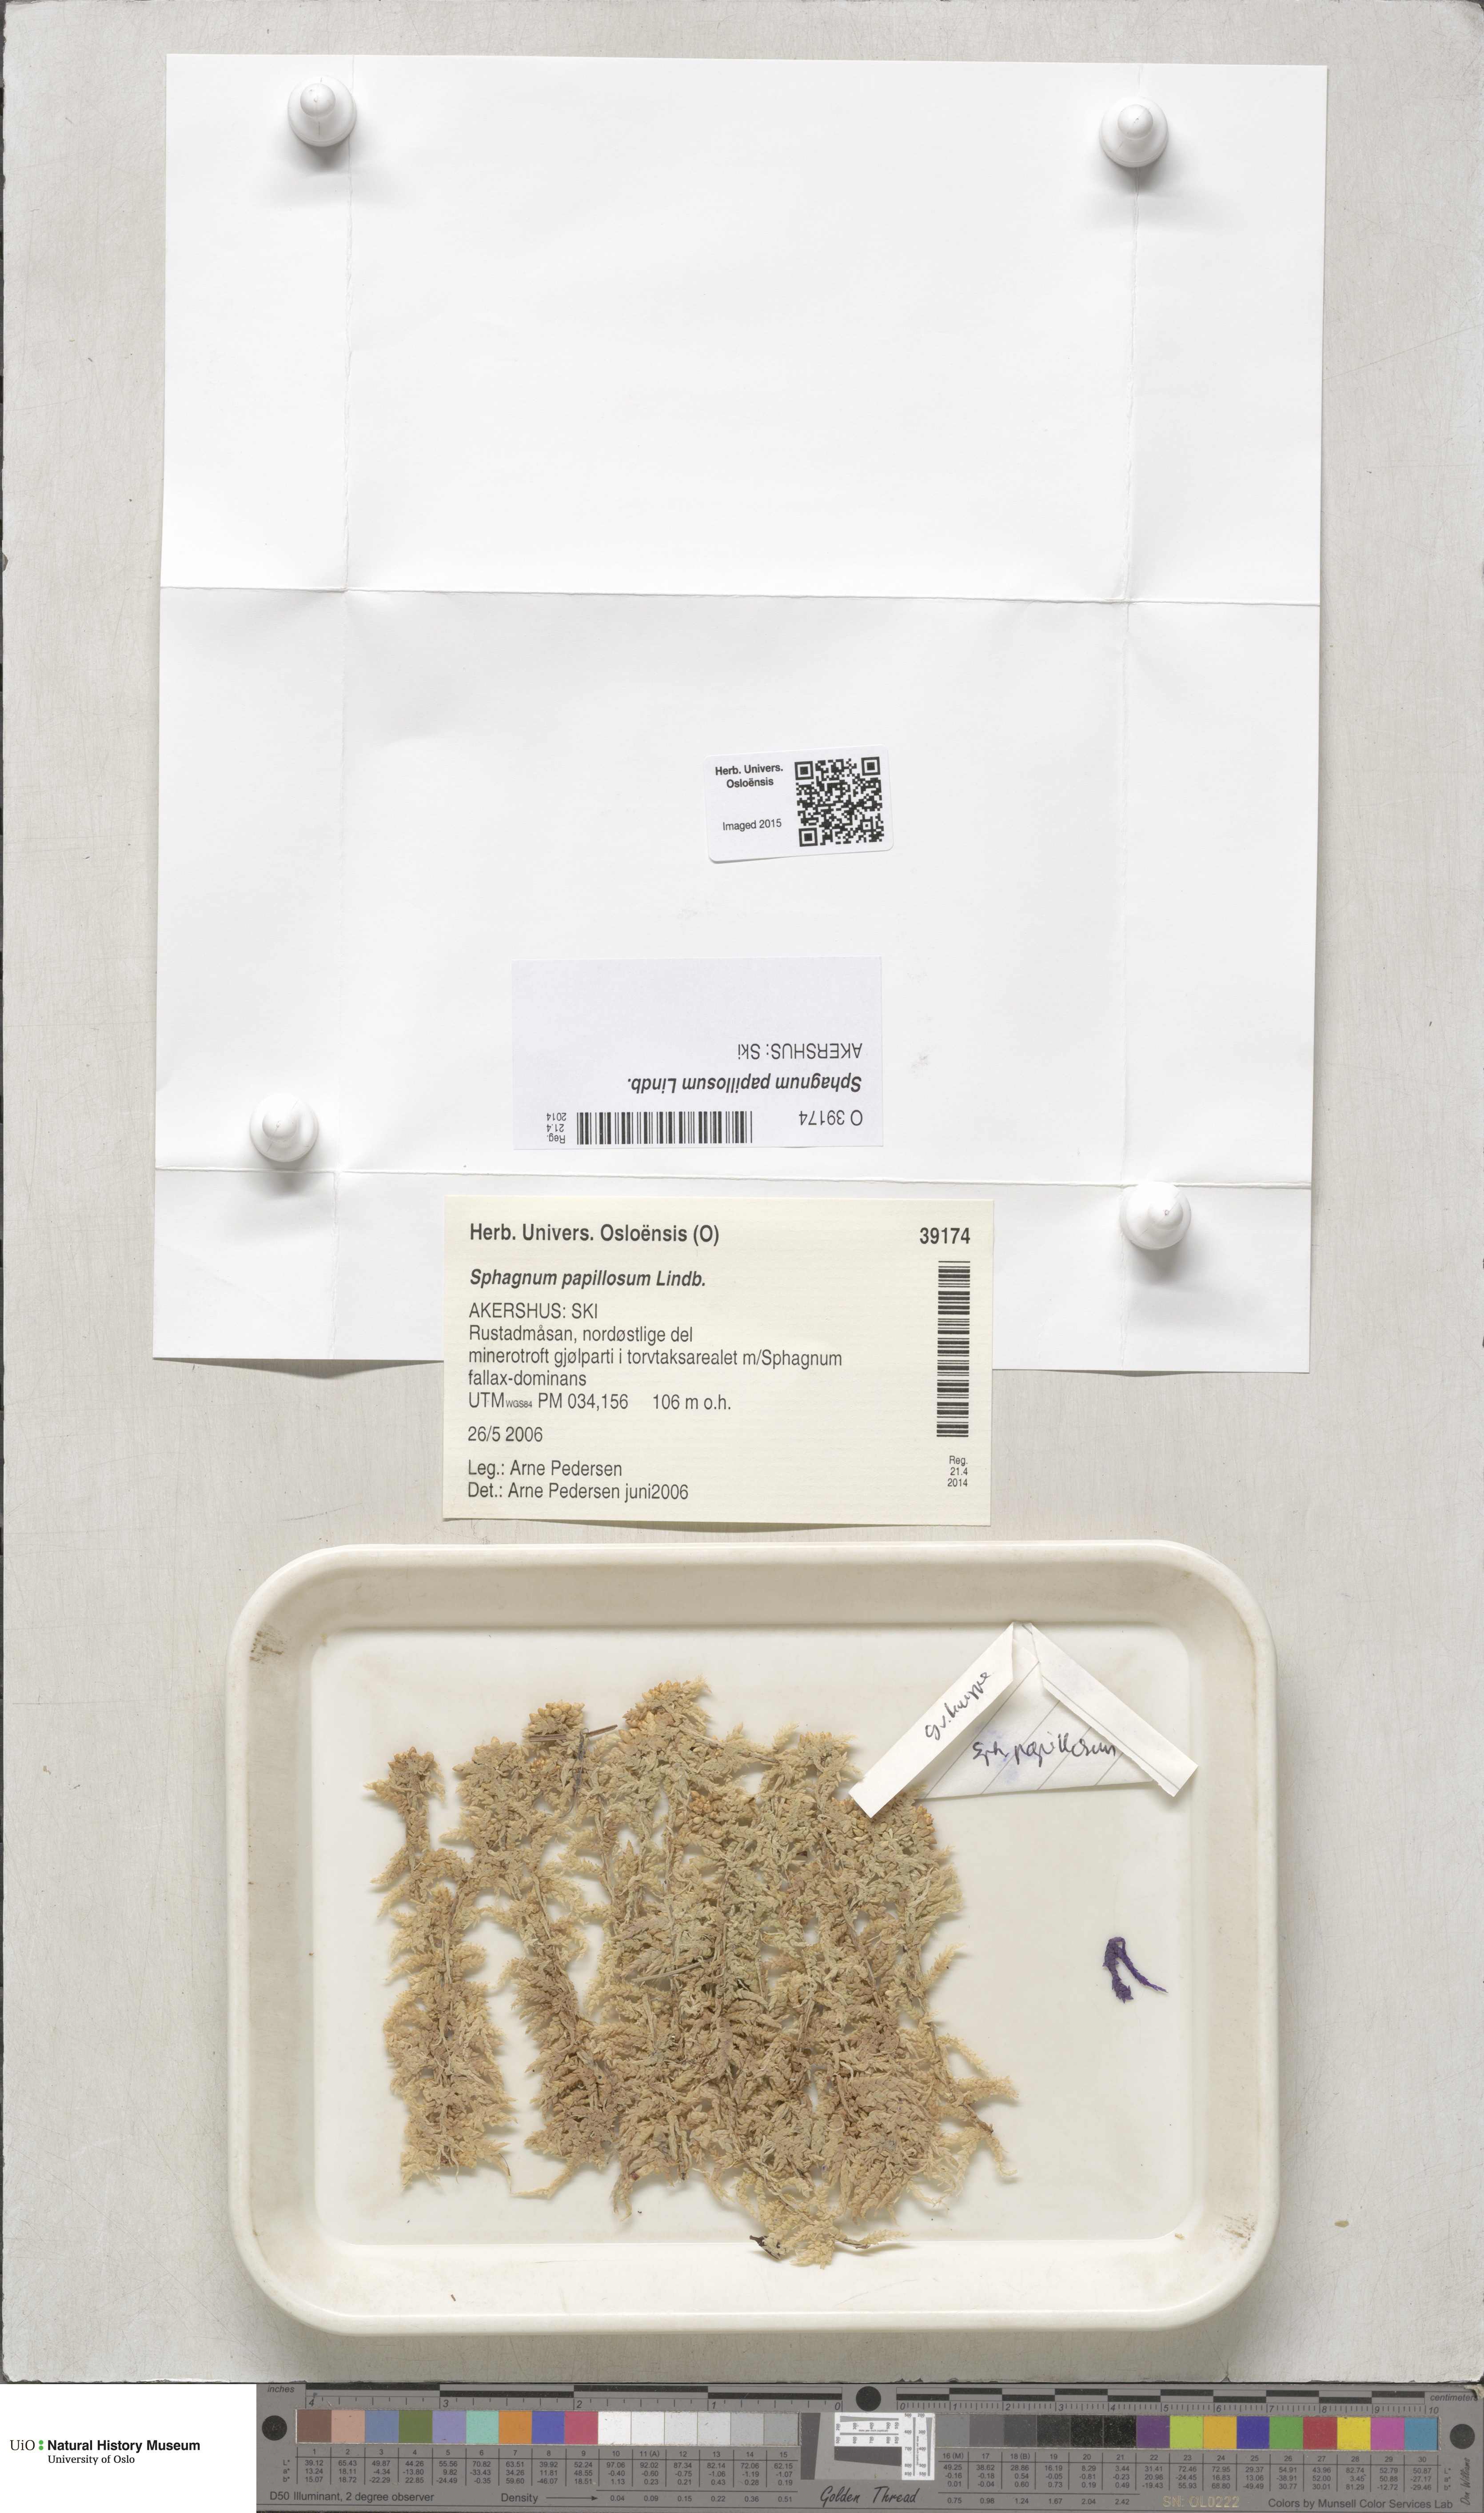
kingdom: Plantae
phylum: Bryophyta
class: Sphagnopsida
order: Sphagnales
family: Sphagnaceae
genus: Sphagnum
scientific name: Sphagnum papillosum
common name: Papillose peat moss
